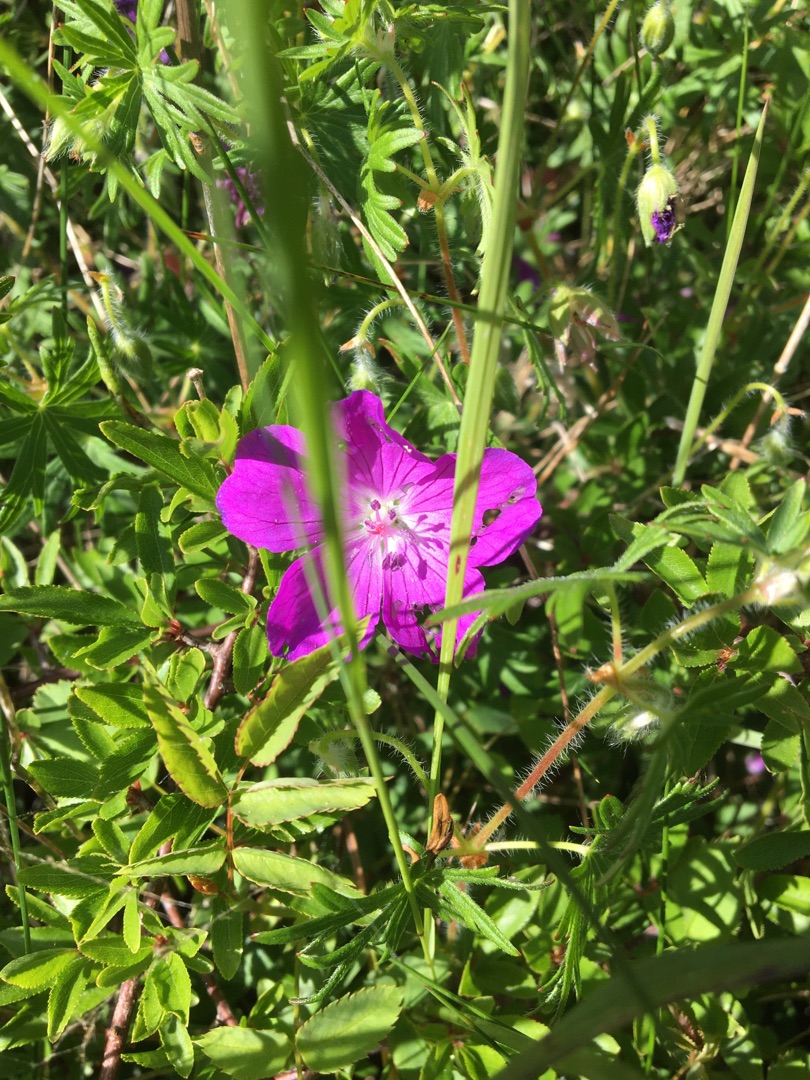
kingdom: Plantae
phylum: Tracheophyta
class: Magnoliopsida
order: Geraniales
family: Geraniaceae
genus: Geranium
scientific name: Geranium sanguineum
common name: Blodrød storkenæb
